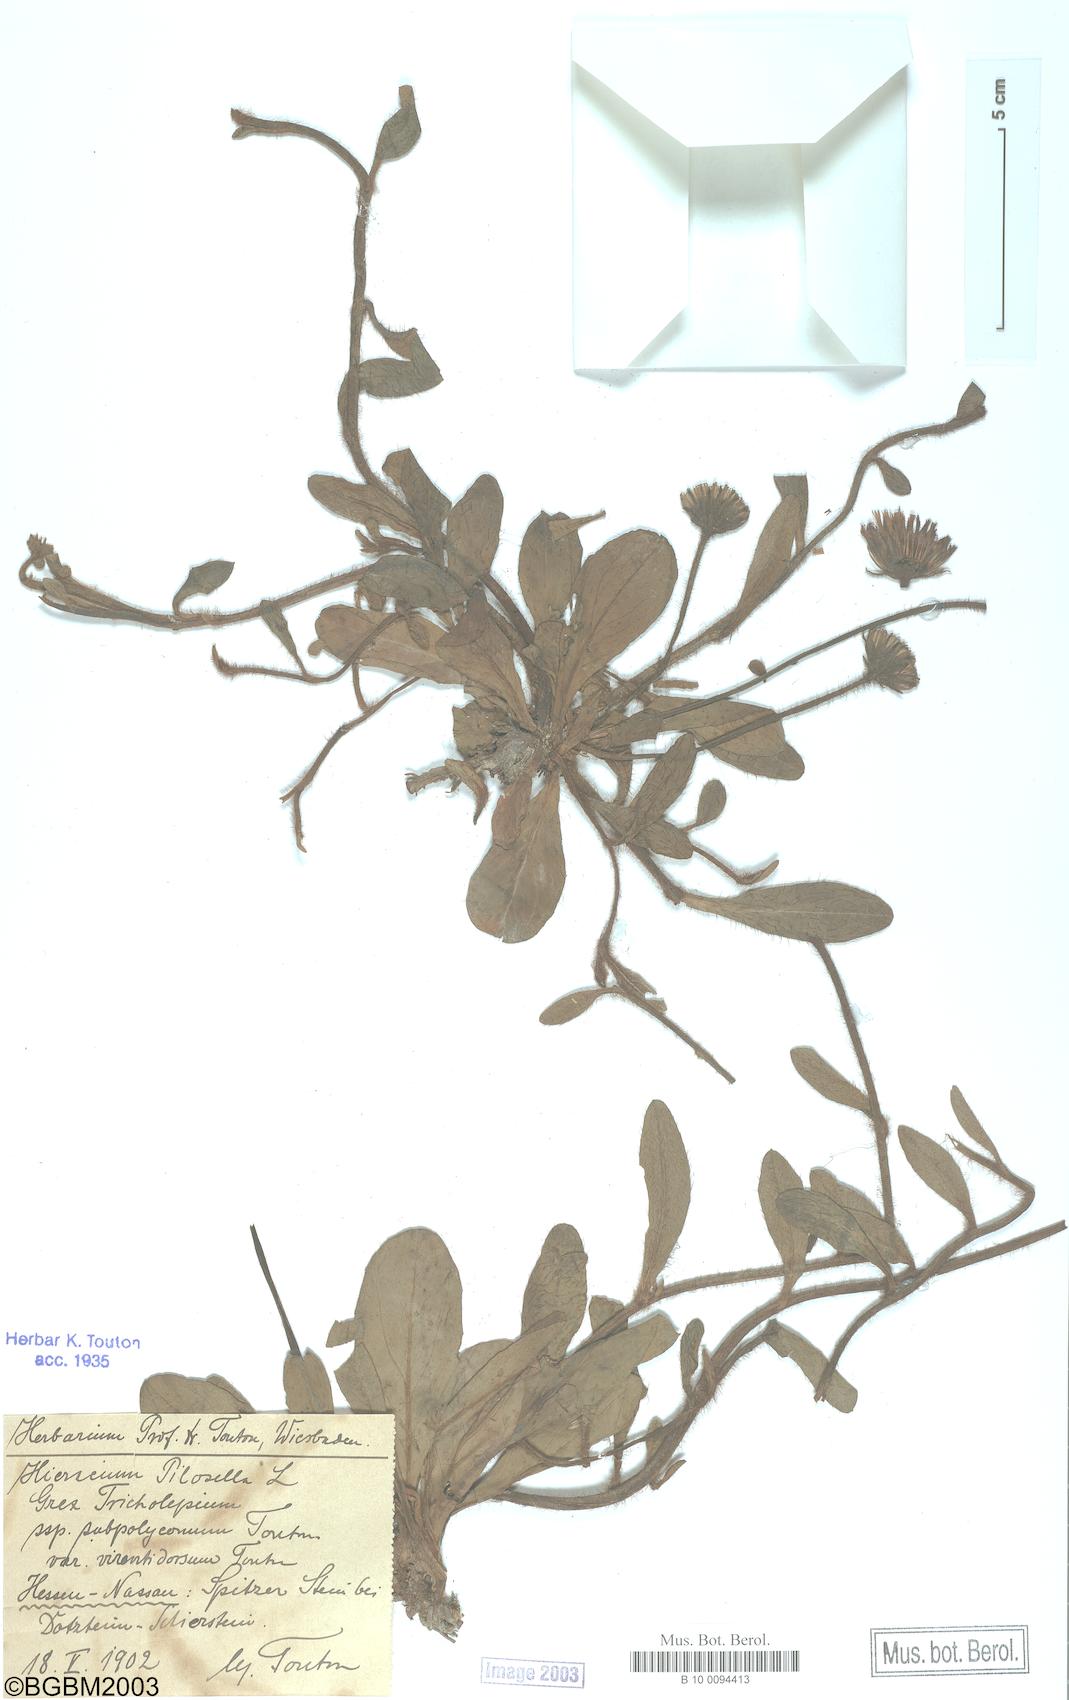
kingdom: Plantae
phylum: Tracheophyta
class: Magnoliopsida
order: Asterales
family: Asteraceae
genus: Pilosella
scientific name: Pilosella officinarum
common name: Mouse-ear hawkweed
